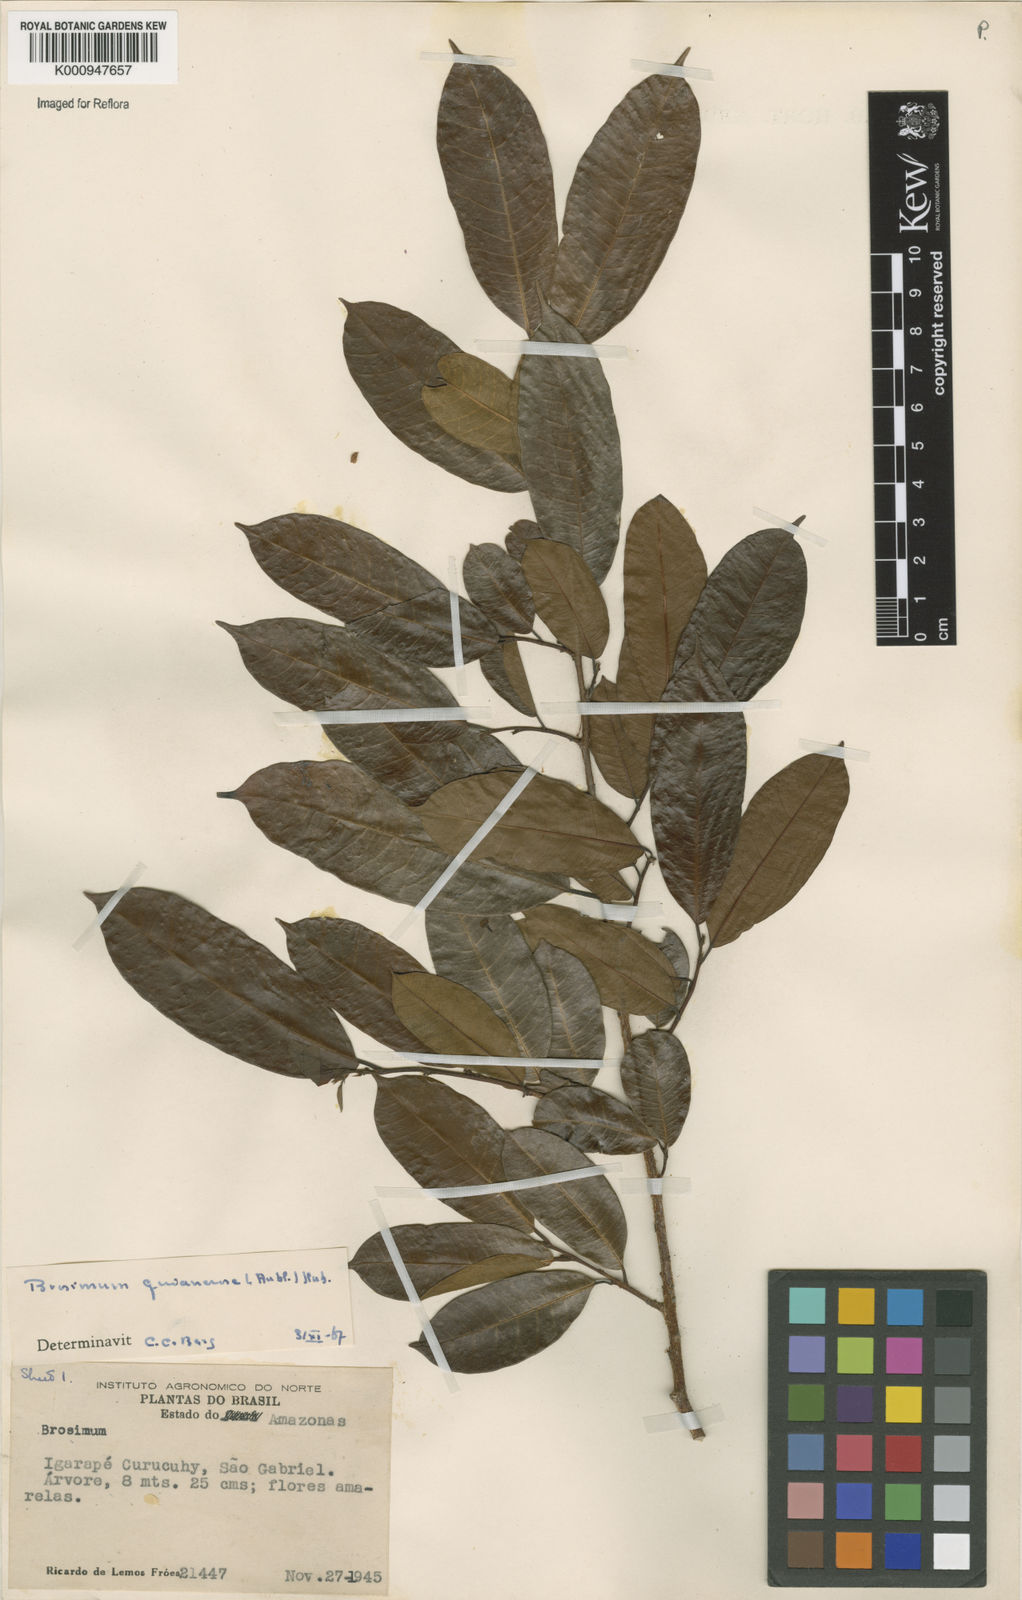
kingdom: Plantae
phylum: Tracheophyta
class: Magnoliopsida
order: Rosales
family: Moraceae
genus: Brosimum
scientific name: Brosimum
